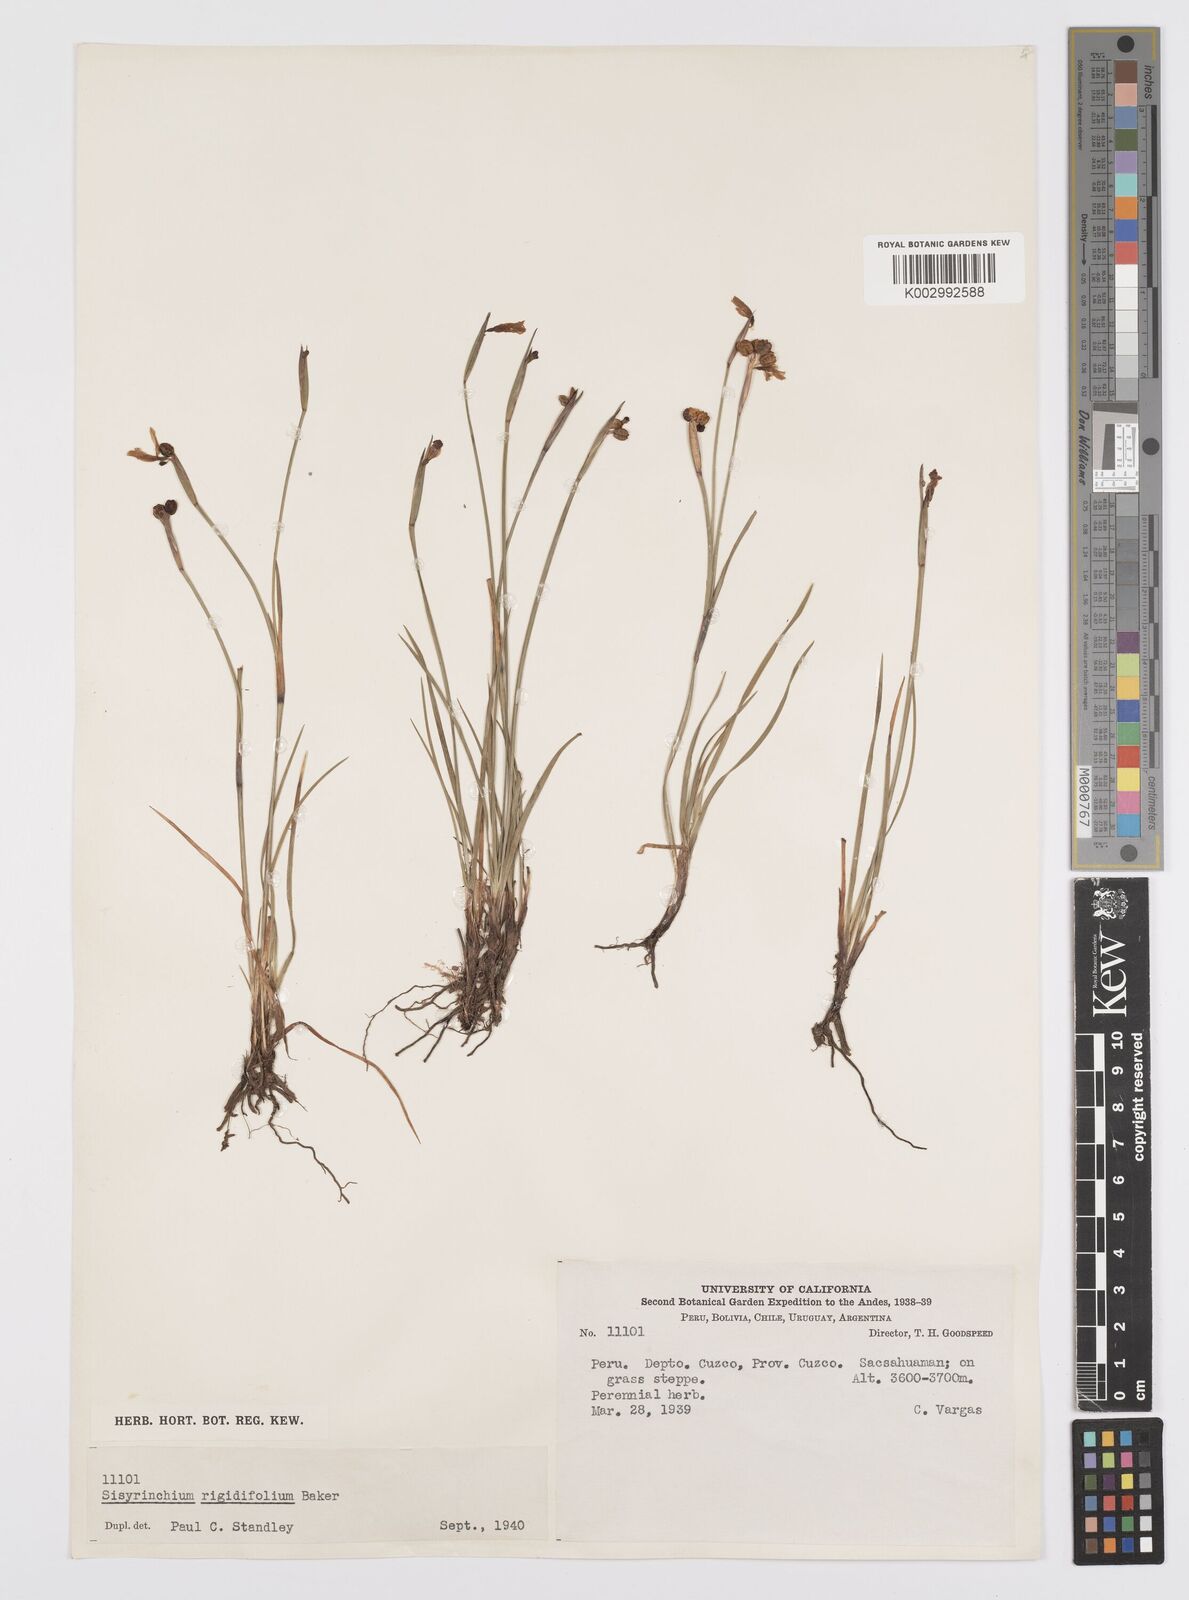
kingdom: Plantae
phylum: Tracheophyta
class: Liliopsida
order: Asparagales
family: Iridaceae
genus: Sisyrinchium
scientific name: Sisyrinchium rigidifolium
